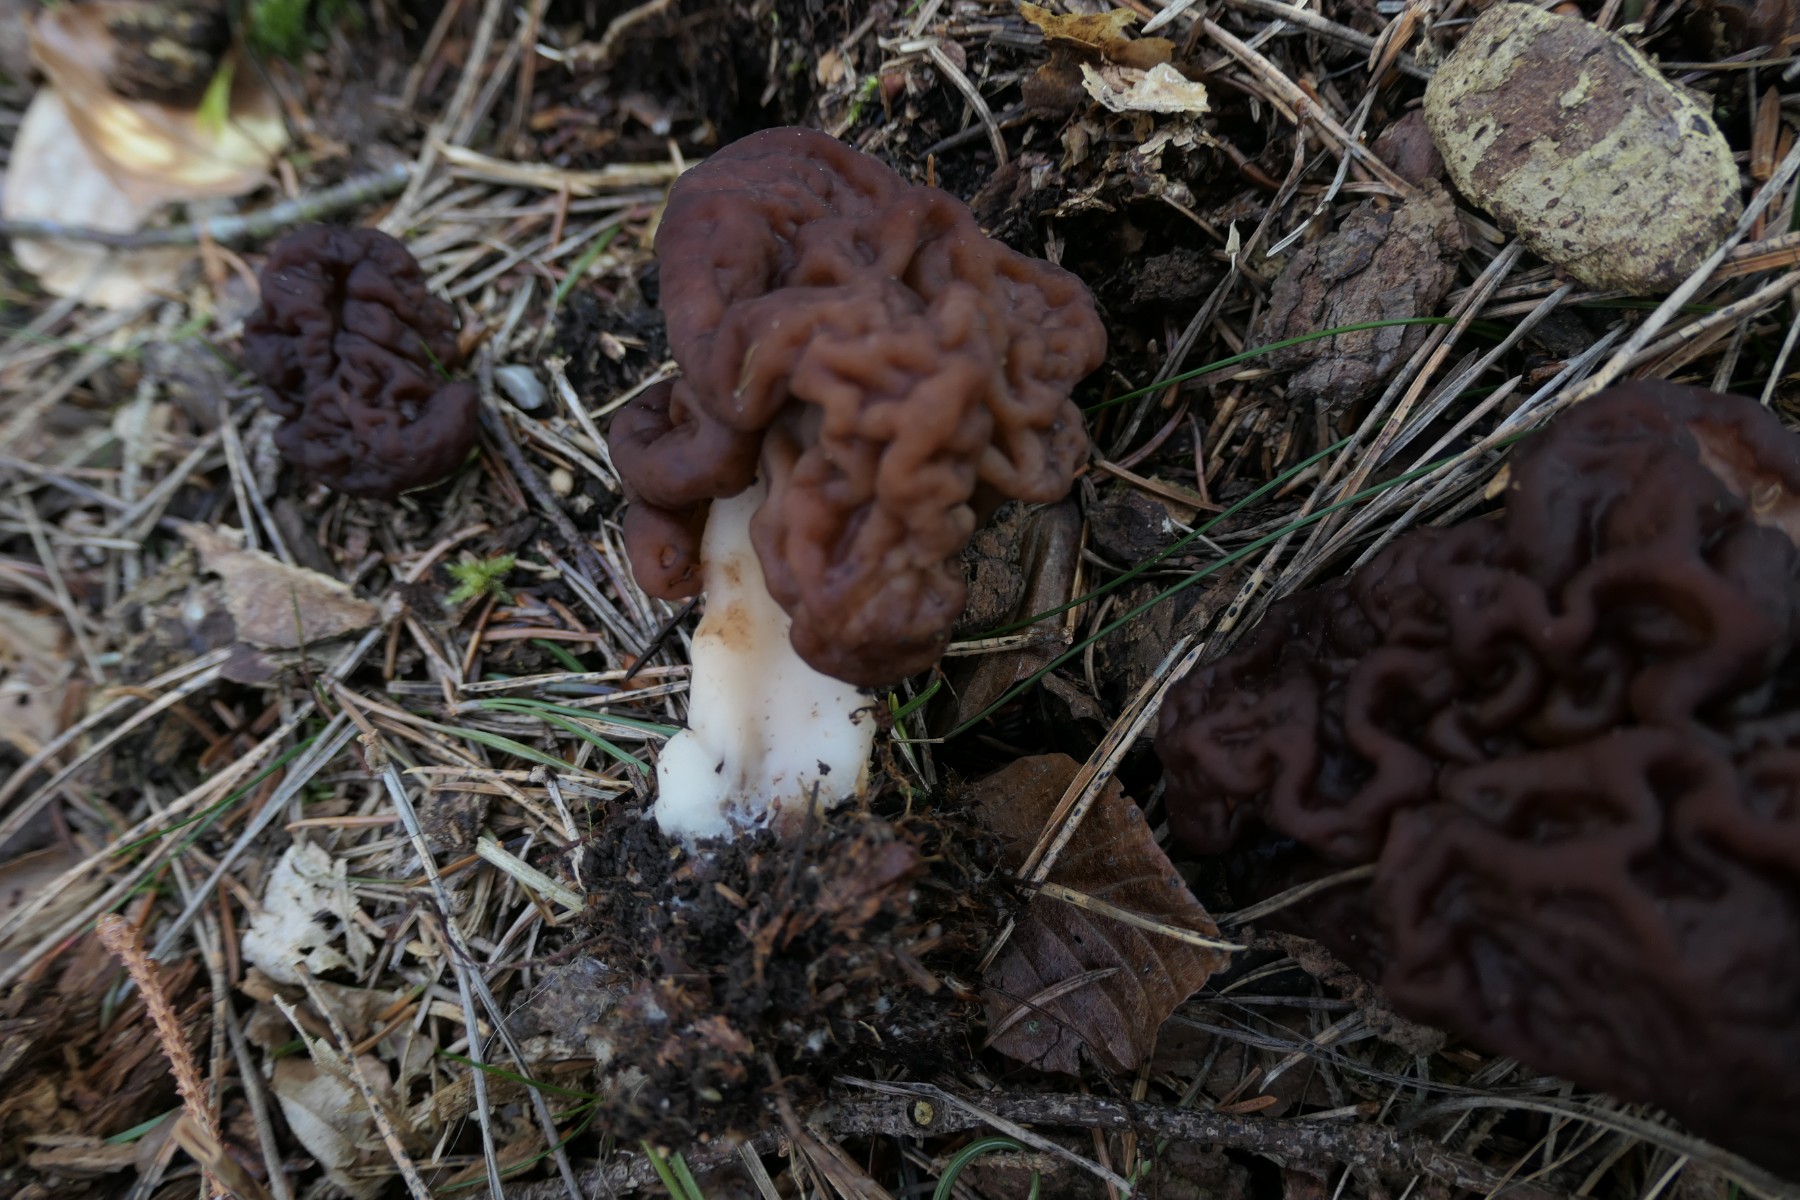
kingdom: Fungi
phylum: Ascomycota
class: Pezizomycetes
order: Pezizales
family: Discinaceae
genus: Gyromitra
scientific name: Gyromitra esculenta
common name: ægte stenmorkel
